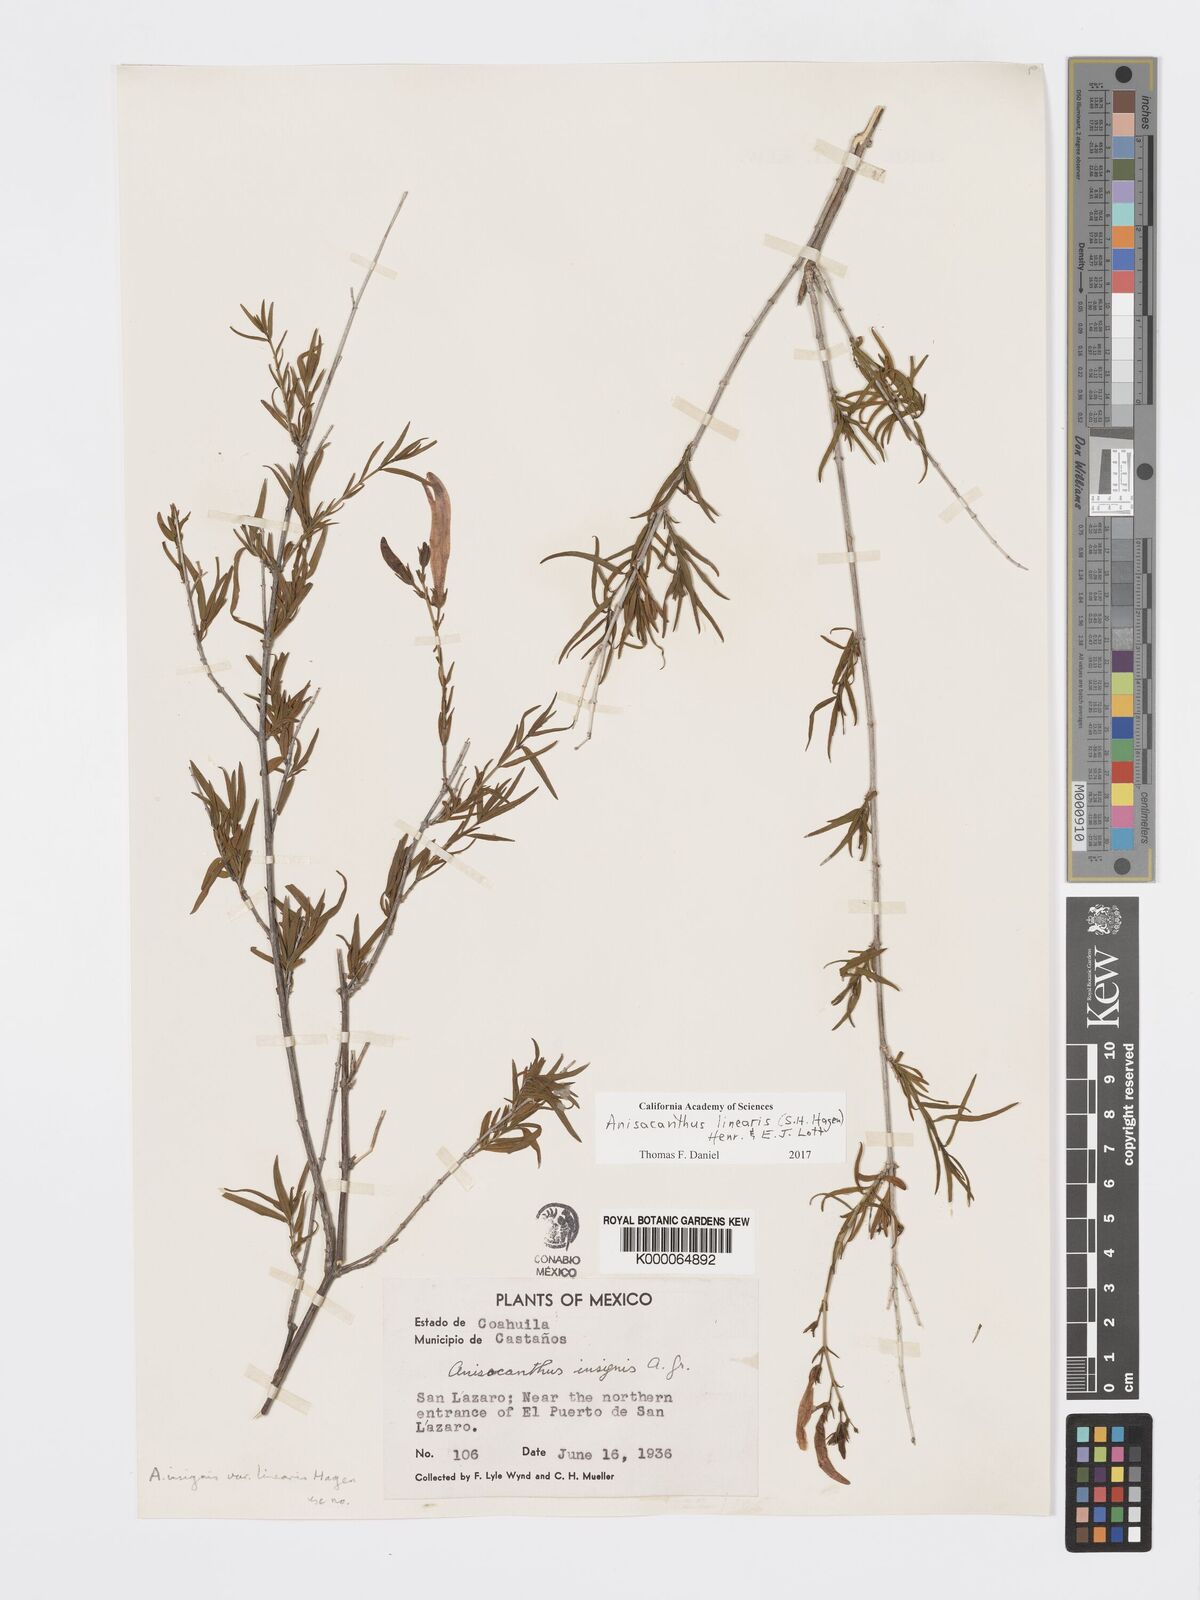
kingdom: Plantae
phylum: Tracheophyta
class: Magnoliopsida
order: Lamiales
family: Acanthaceae
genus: Anisacanthus
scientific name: Anisacanthus linearis
